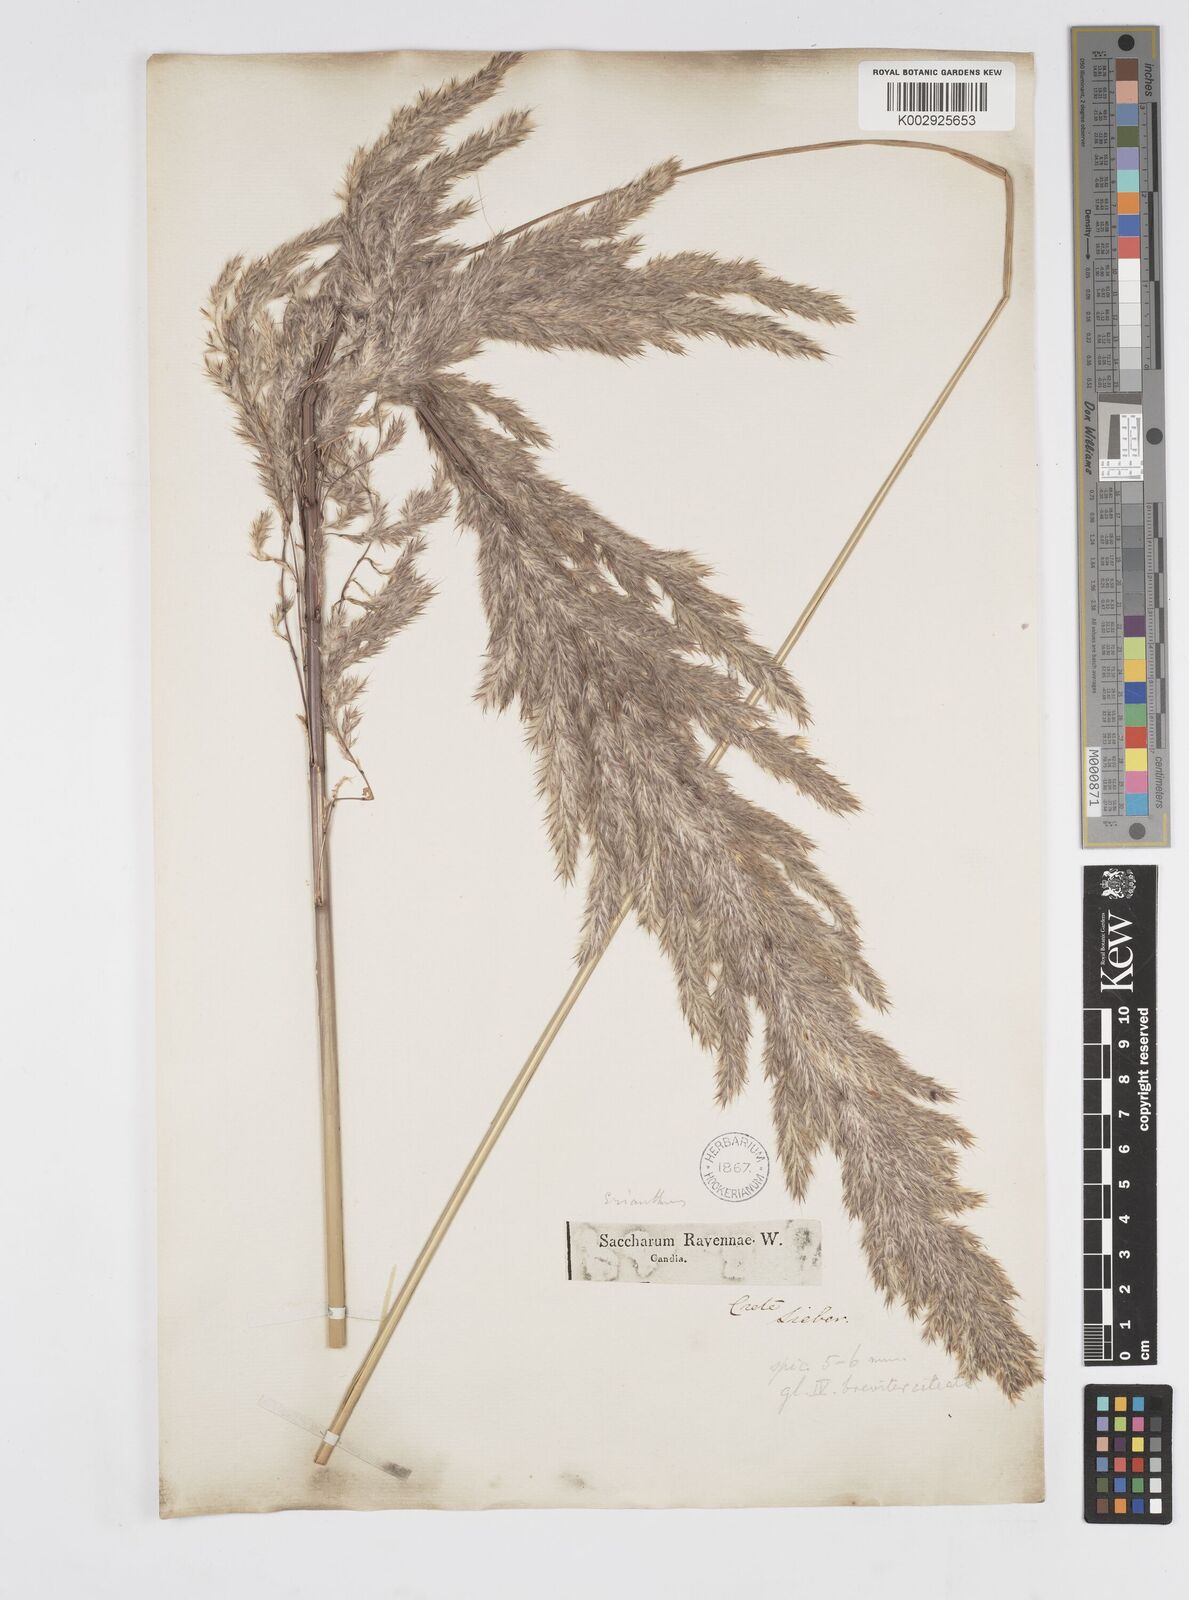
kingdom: Plantae
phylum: Tracheophyta
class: Liliopsida
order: Poales
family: Poaceae
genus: Tripidium
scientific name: Tripidium ravennae
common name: Ravenna grass
